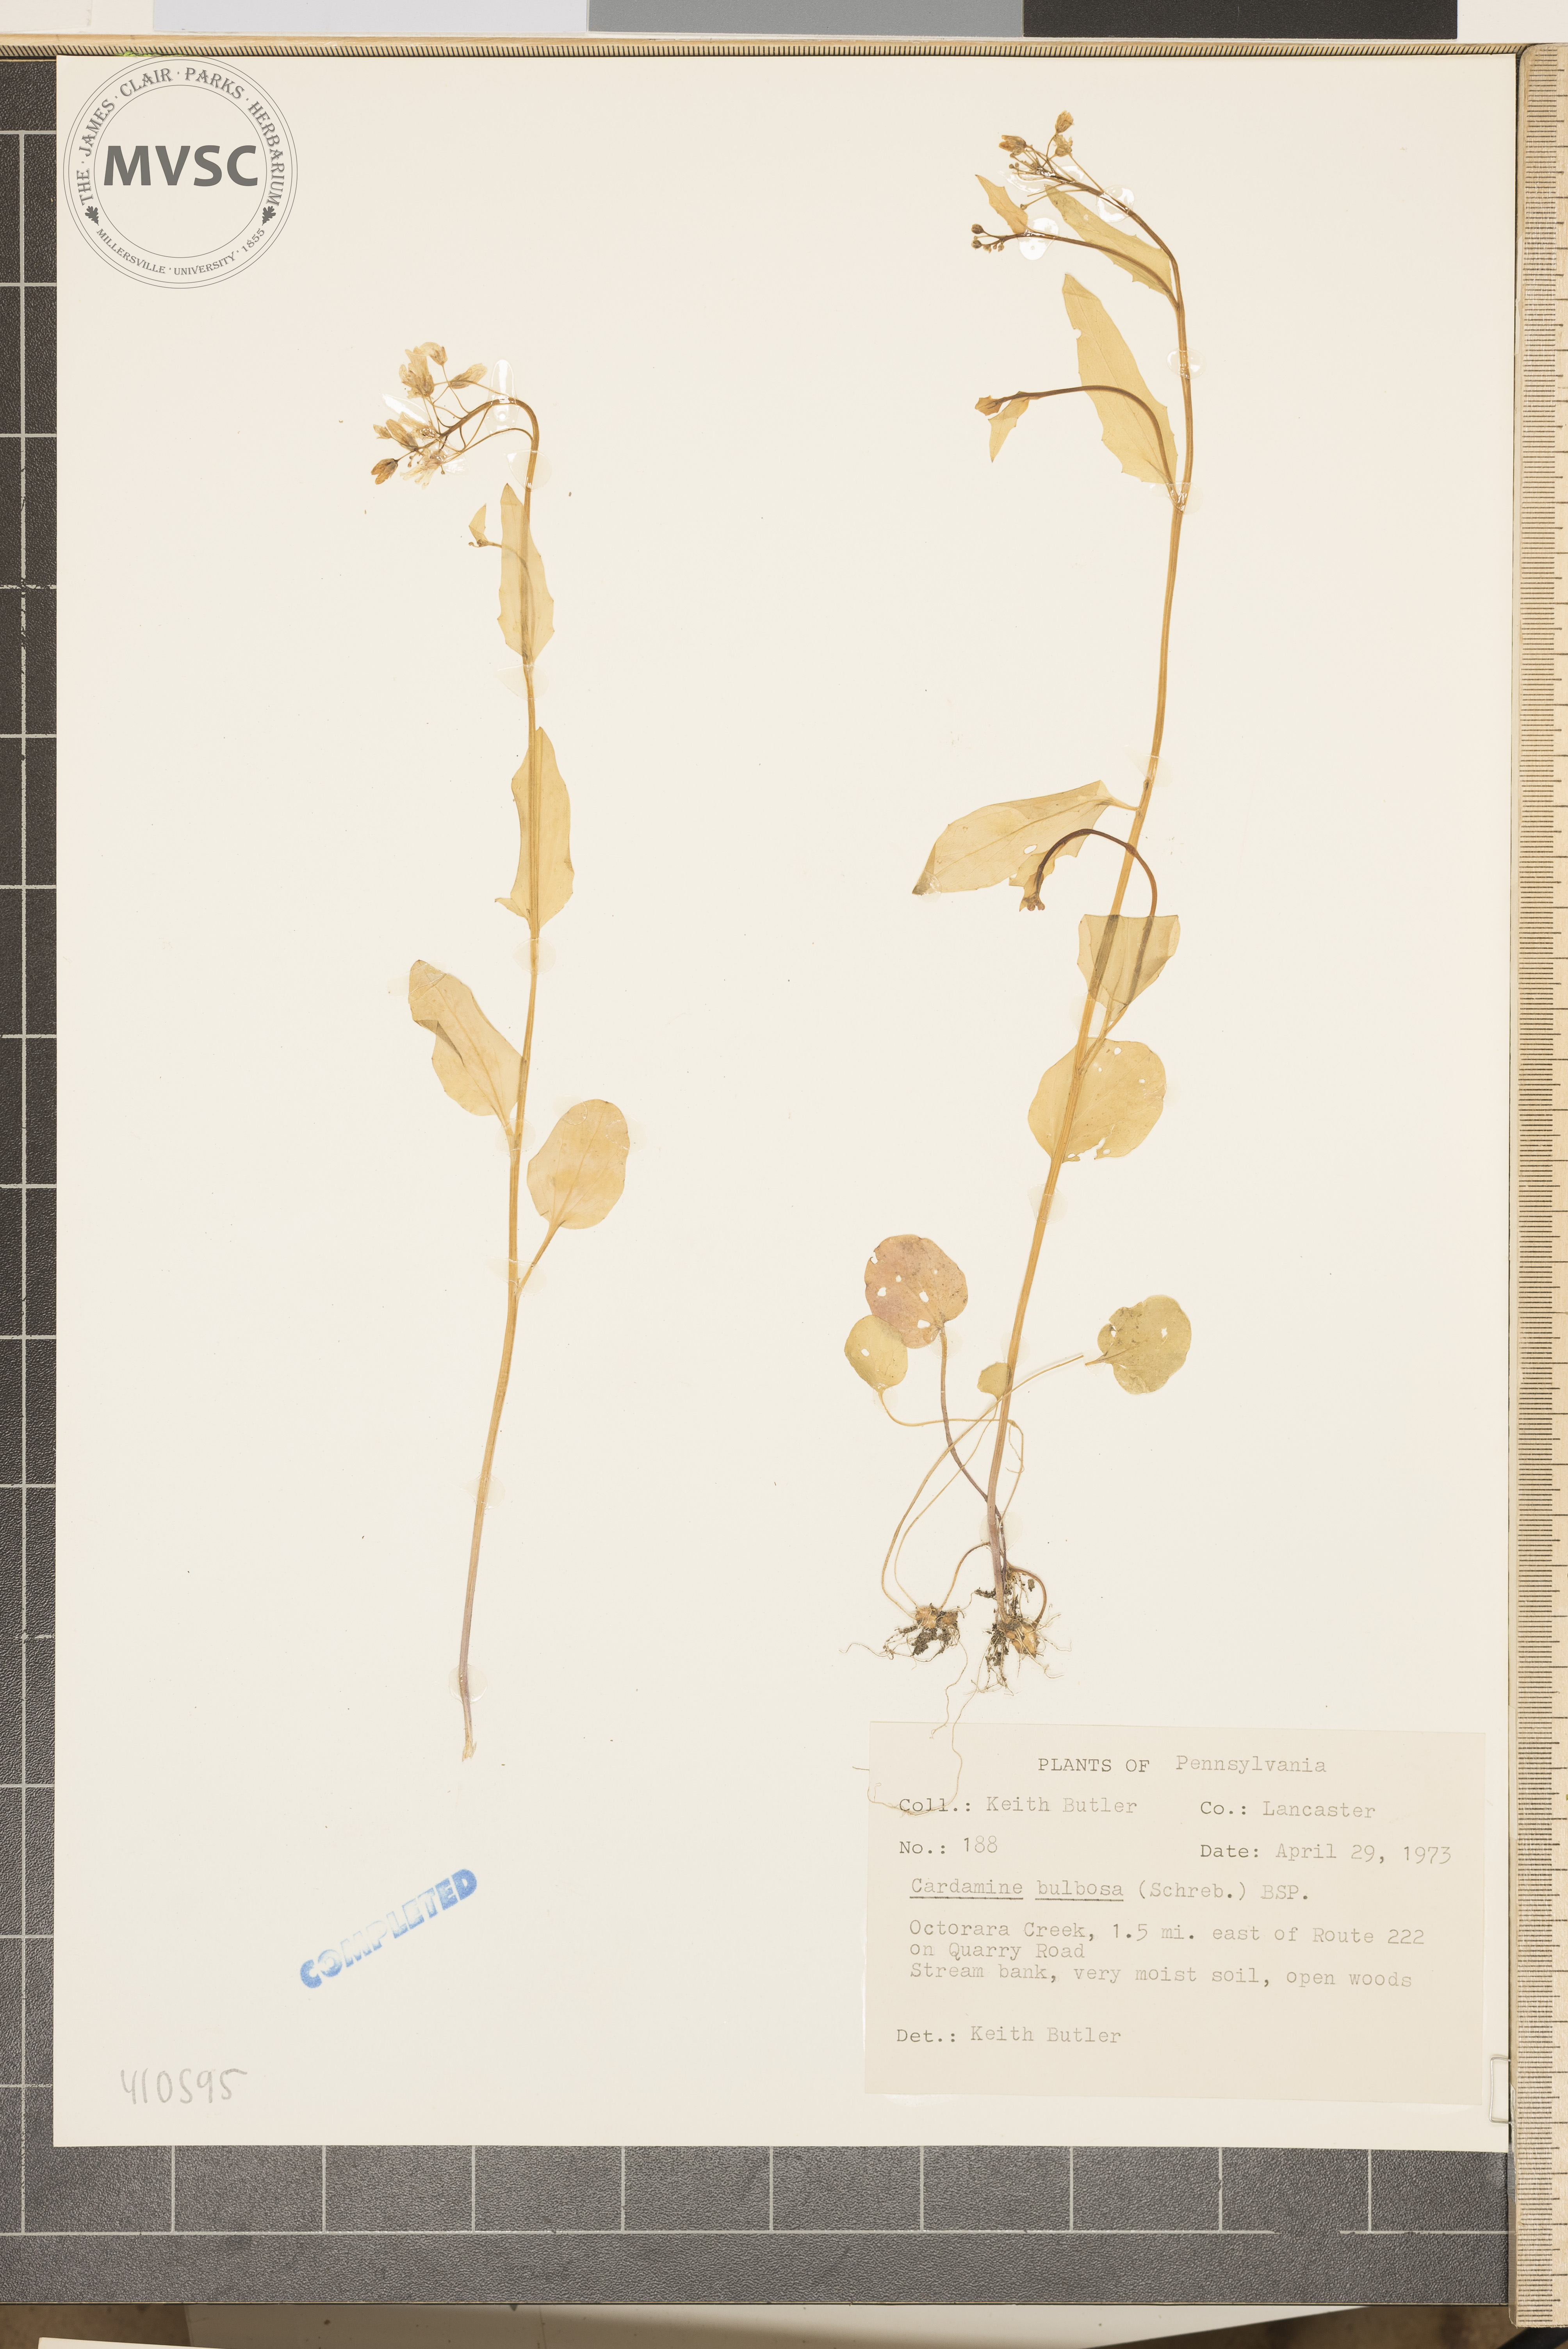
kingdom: Plantae
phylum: Tracheophyta
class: Magnoliopsida
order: Brassicales
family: Brassicaceae
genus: Cardamine
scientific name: Cardamine bulbosa
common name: Spring cress
